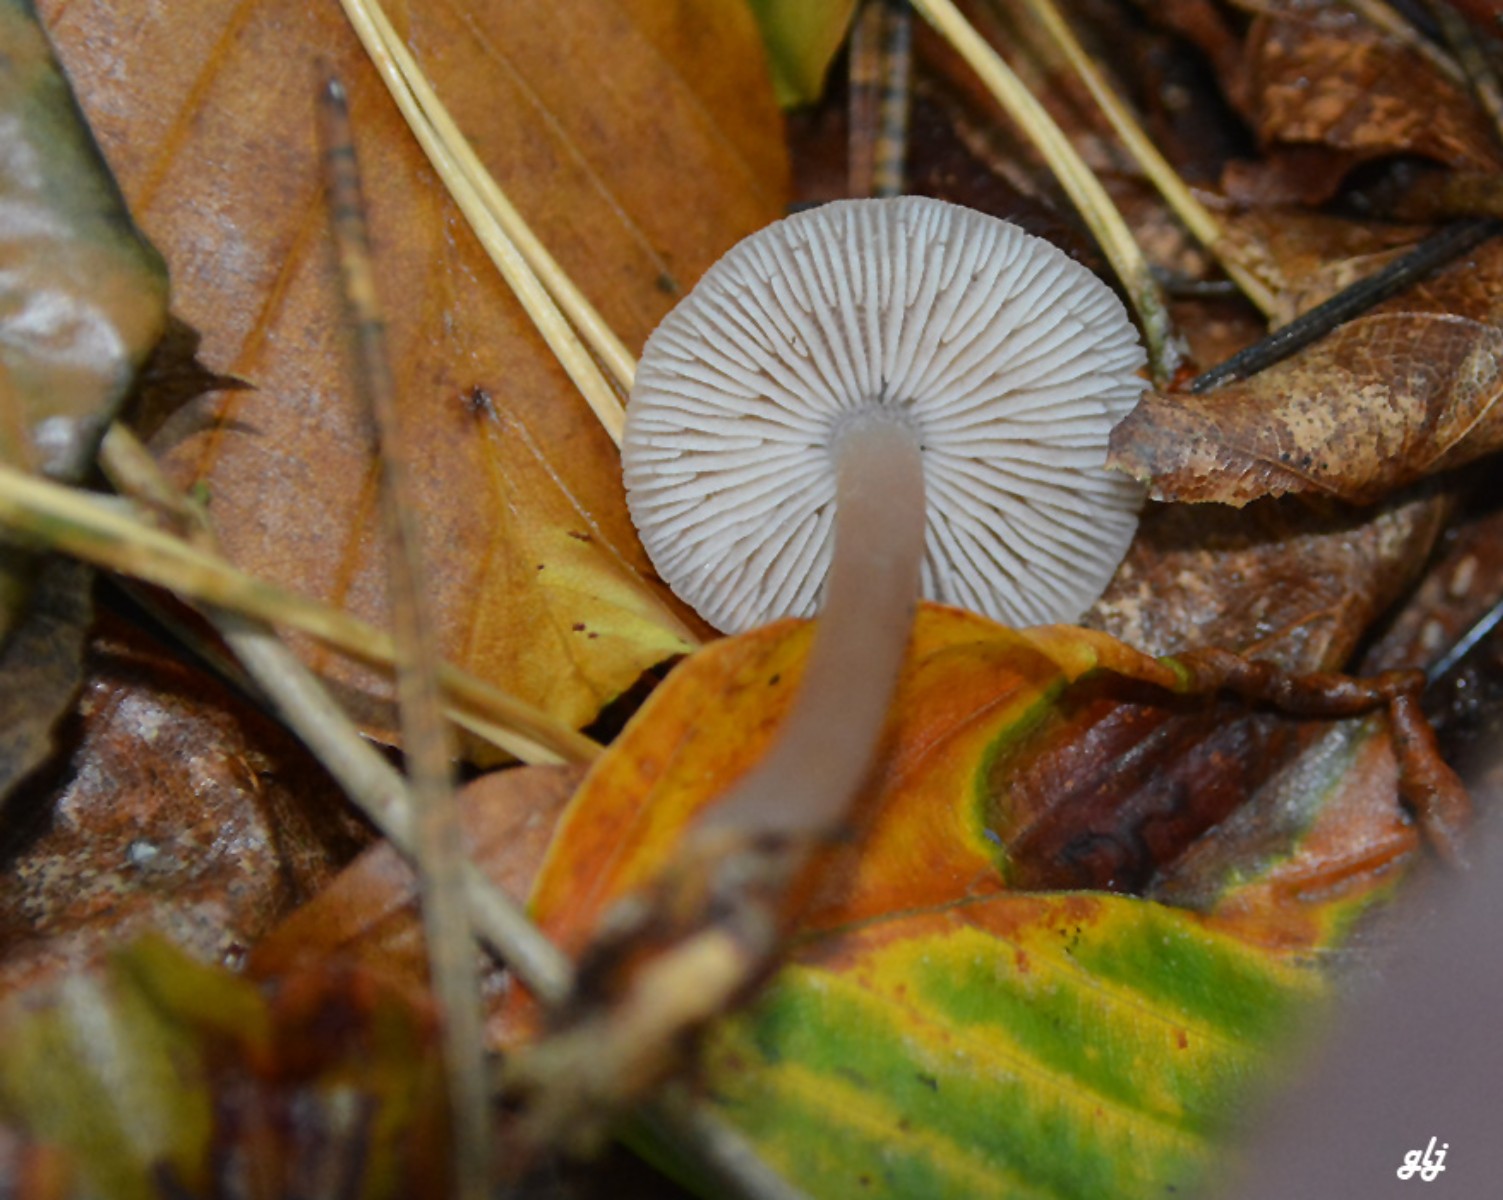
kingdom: Fungi
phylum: Basidiomycota
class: Agaricomycetes
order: Agaricales
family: Mycenaceae
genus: Mycena
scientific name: Mycena
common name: huesvamp
